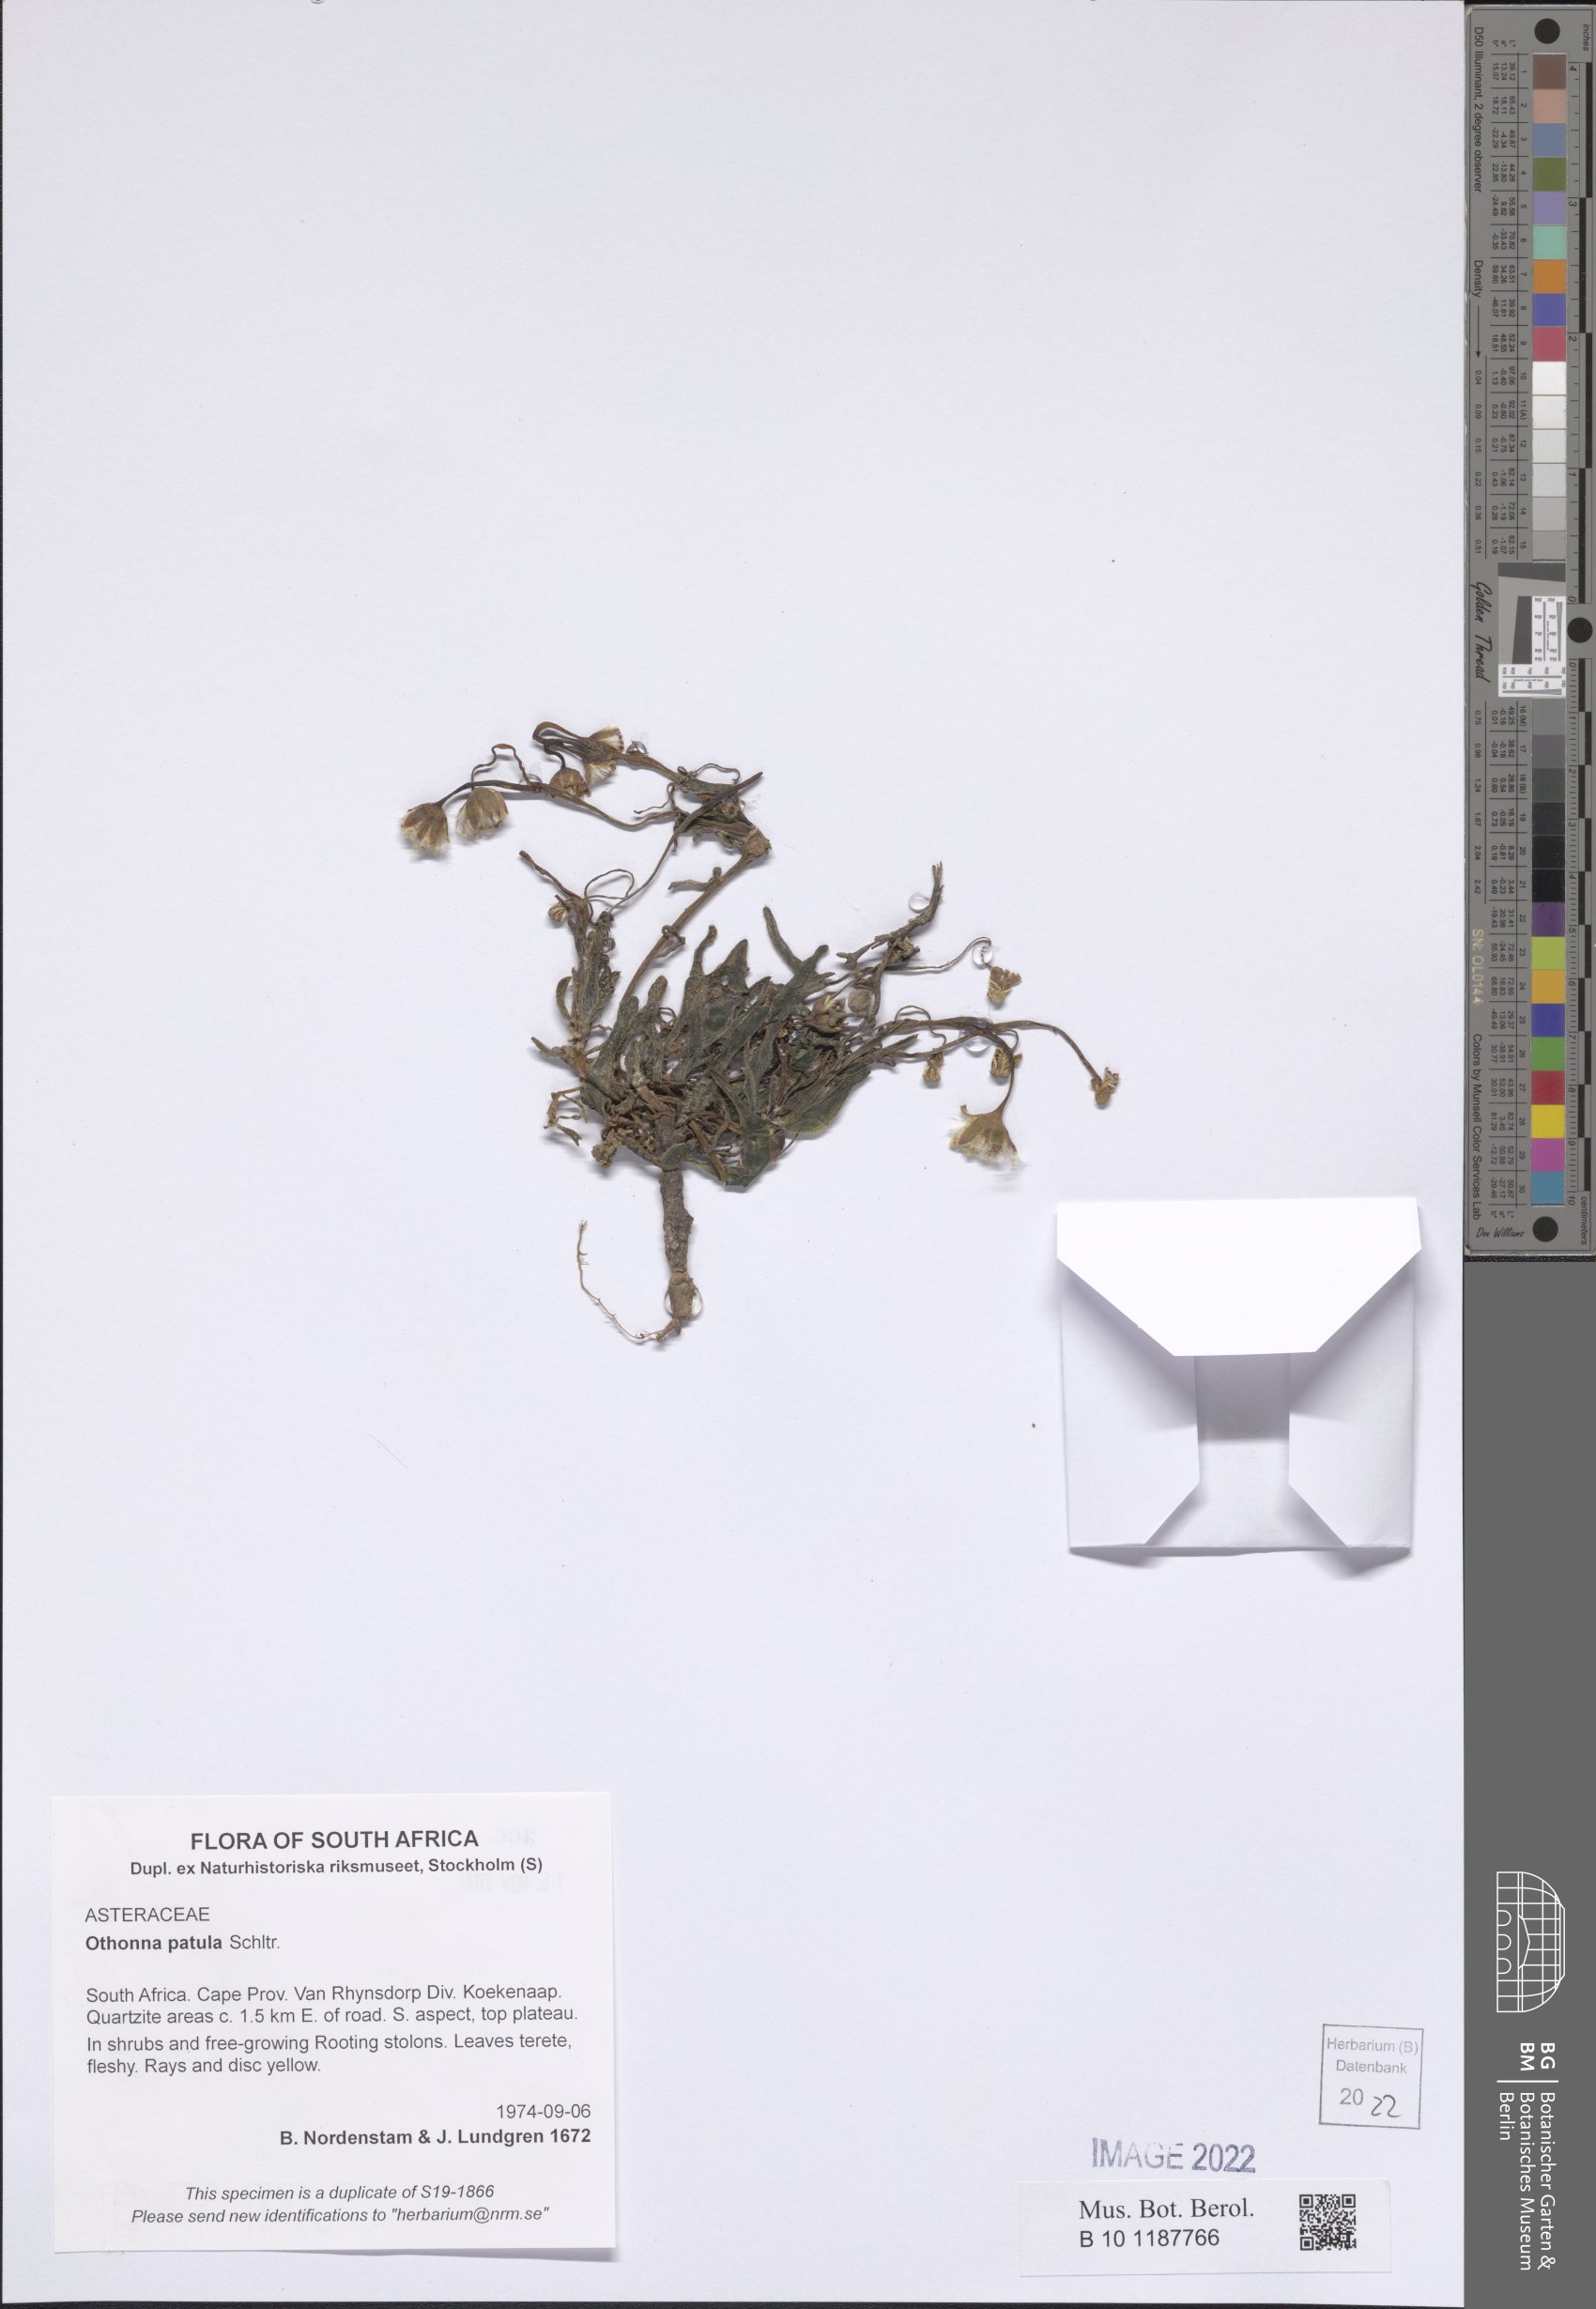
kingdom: Plantae
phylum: Tracheophyta
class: Magnoliopsida
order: Asterales
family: Asteraceae
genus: Crassothonna
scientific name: Crassothonna patula
